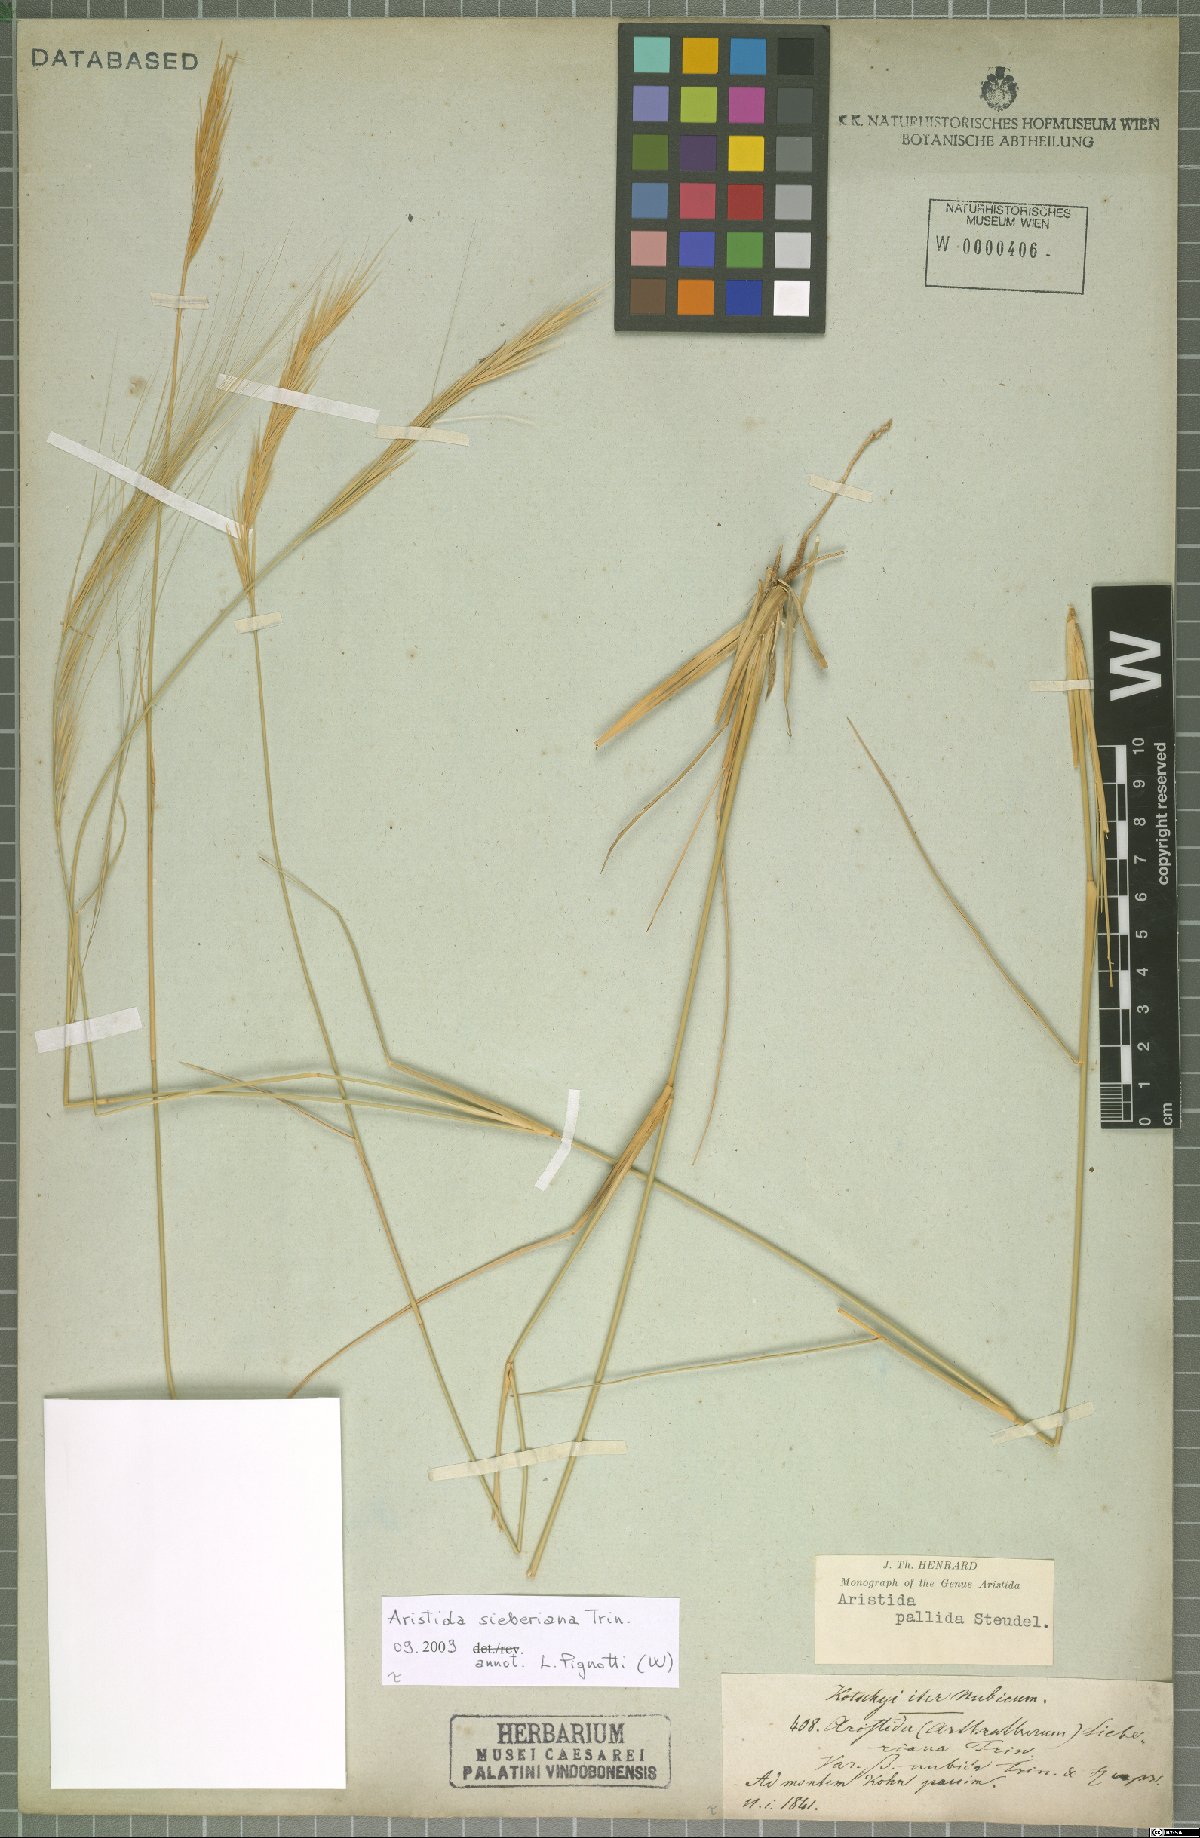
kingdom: Plantae
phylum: Tracheophyta
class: Liliopsida
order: Poales
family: Poaceae
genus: Aristida
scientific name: Aristida sieberiana
